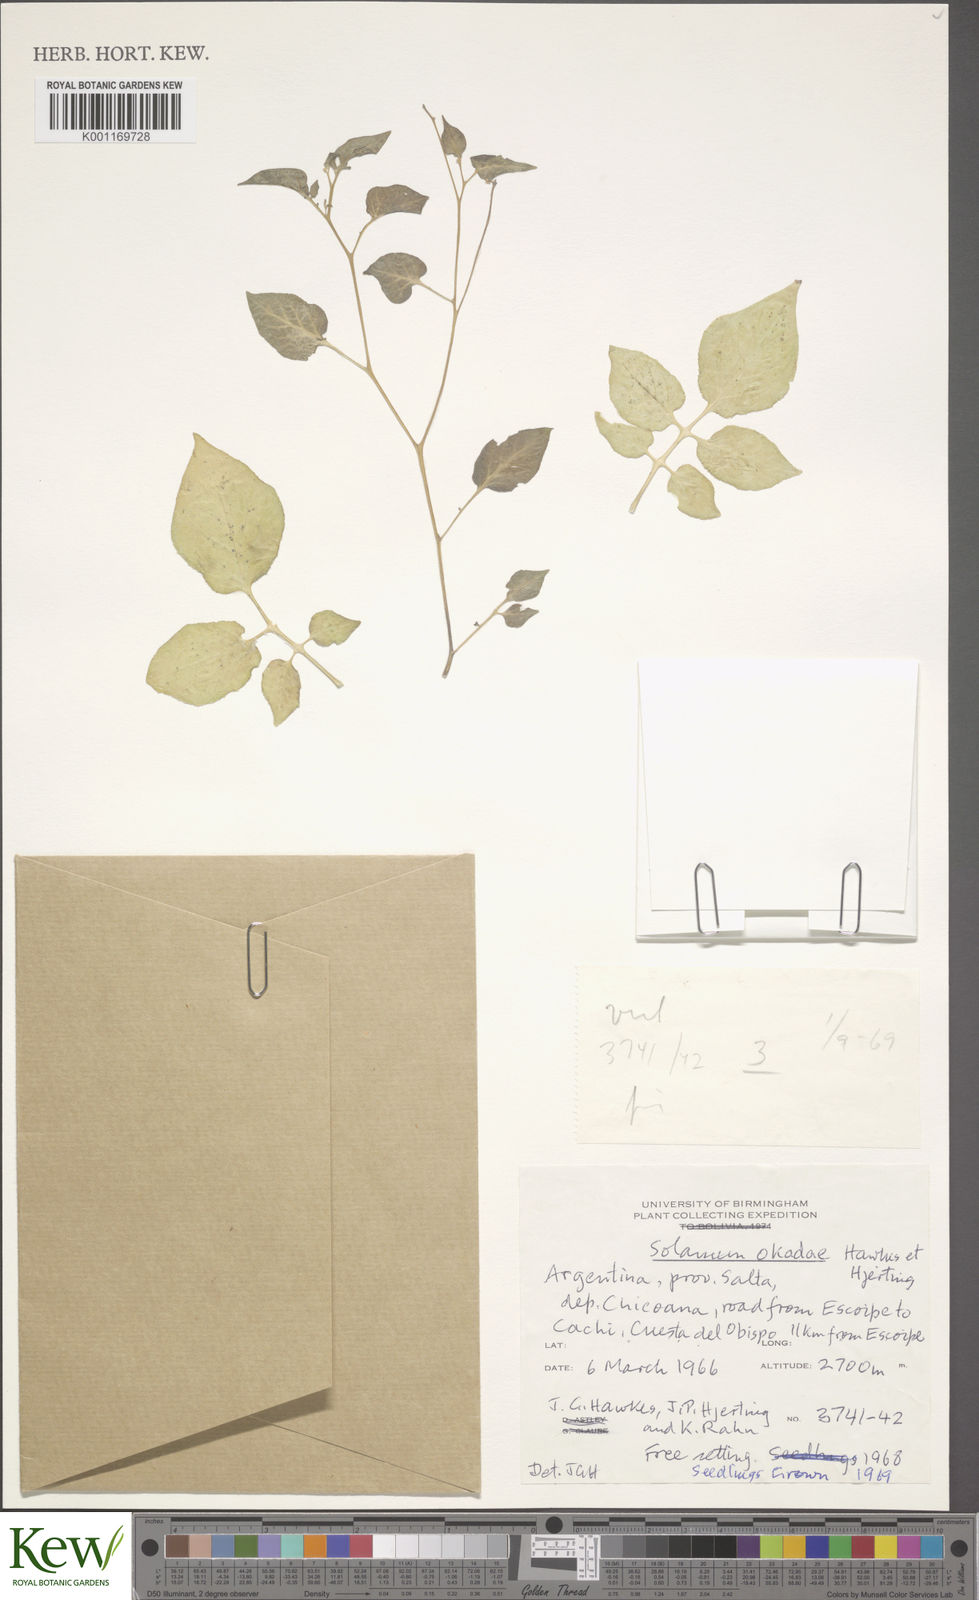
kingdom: Plantae
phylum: Tracheophyta
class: Magnoliopsida
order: Solanales
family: Solanaceae
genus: Solanum
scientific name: Solanum okadae
